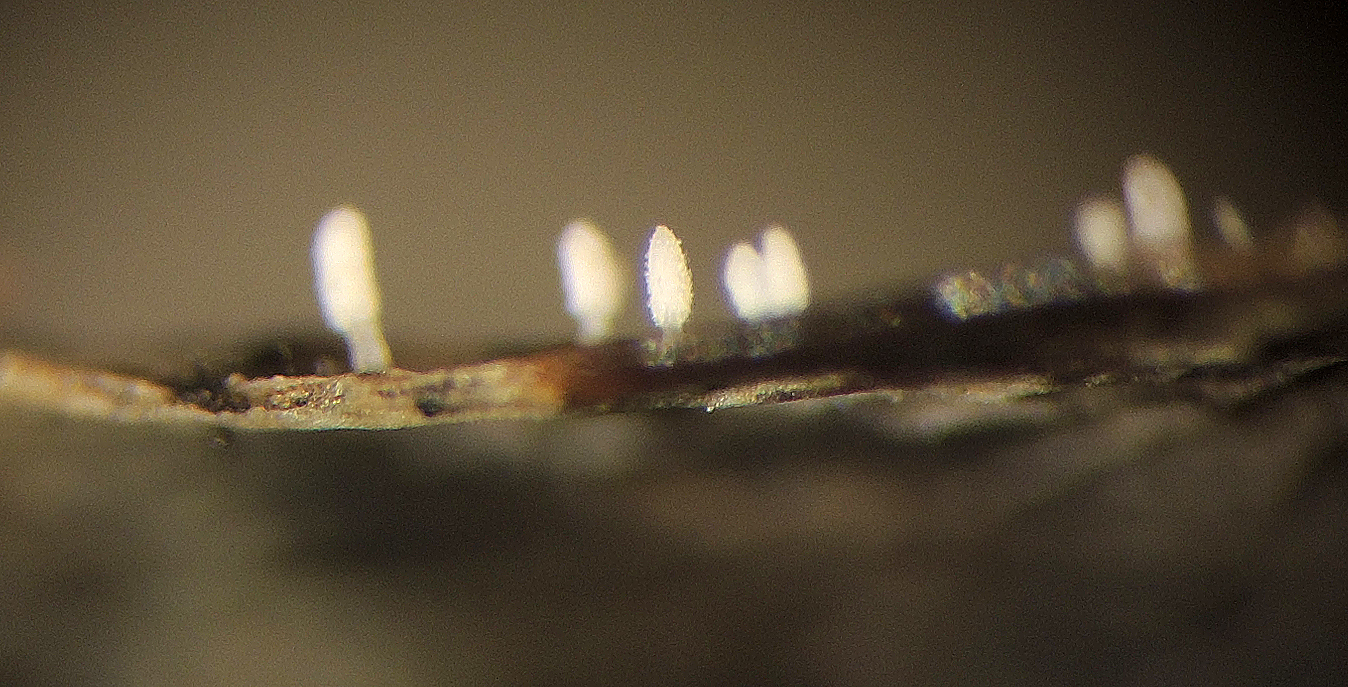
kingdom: Fungi
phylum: Basidiomycota
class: Agaricomycetes
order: Agaricales
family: Typhulaceae
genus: Typhula
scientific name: Typhula podocarpi
